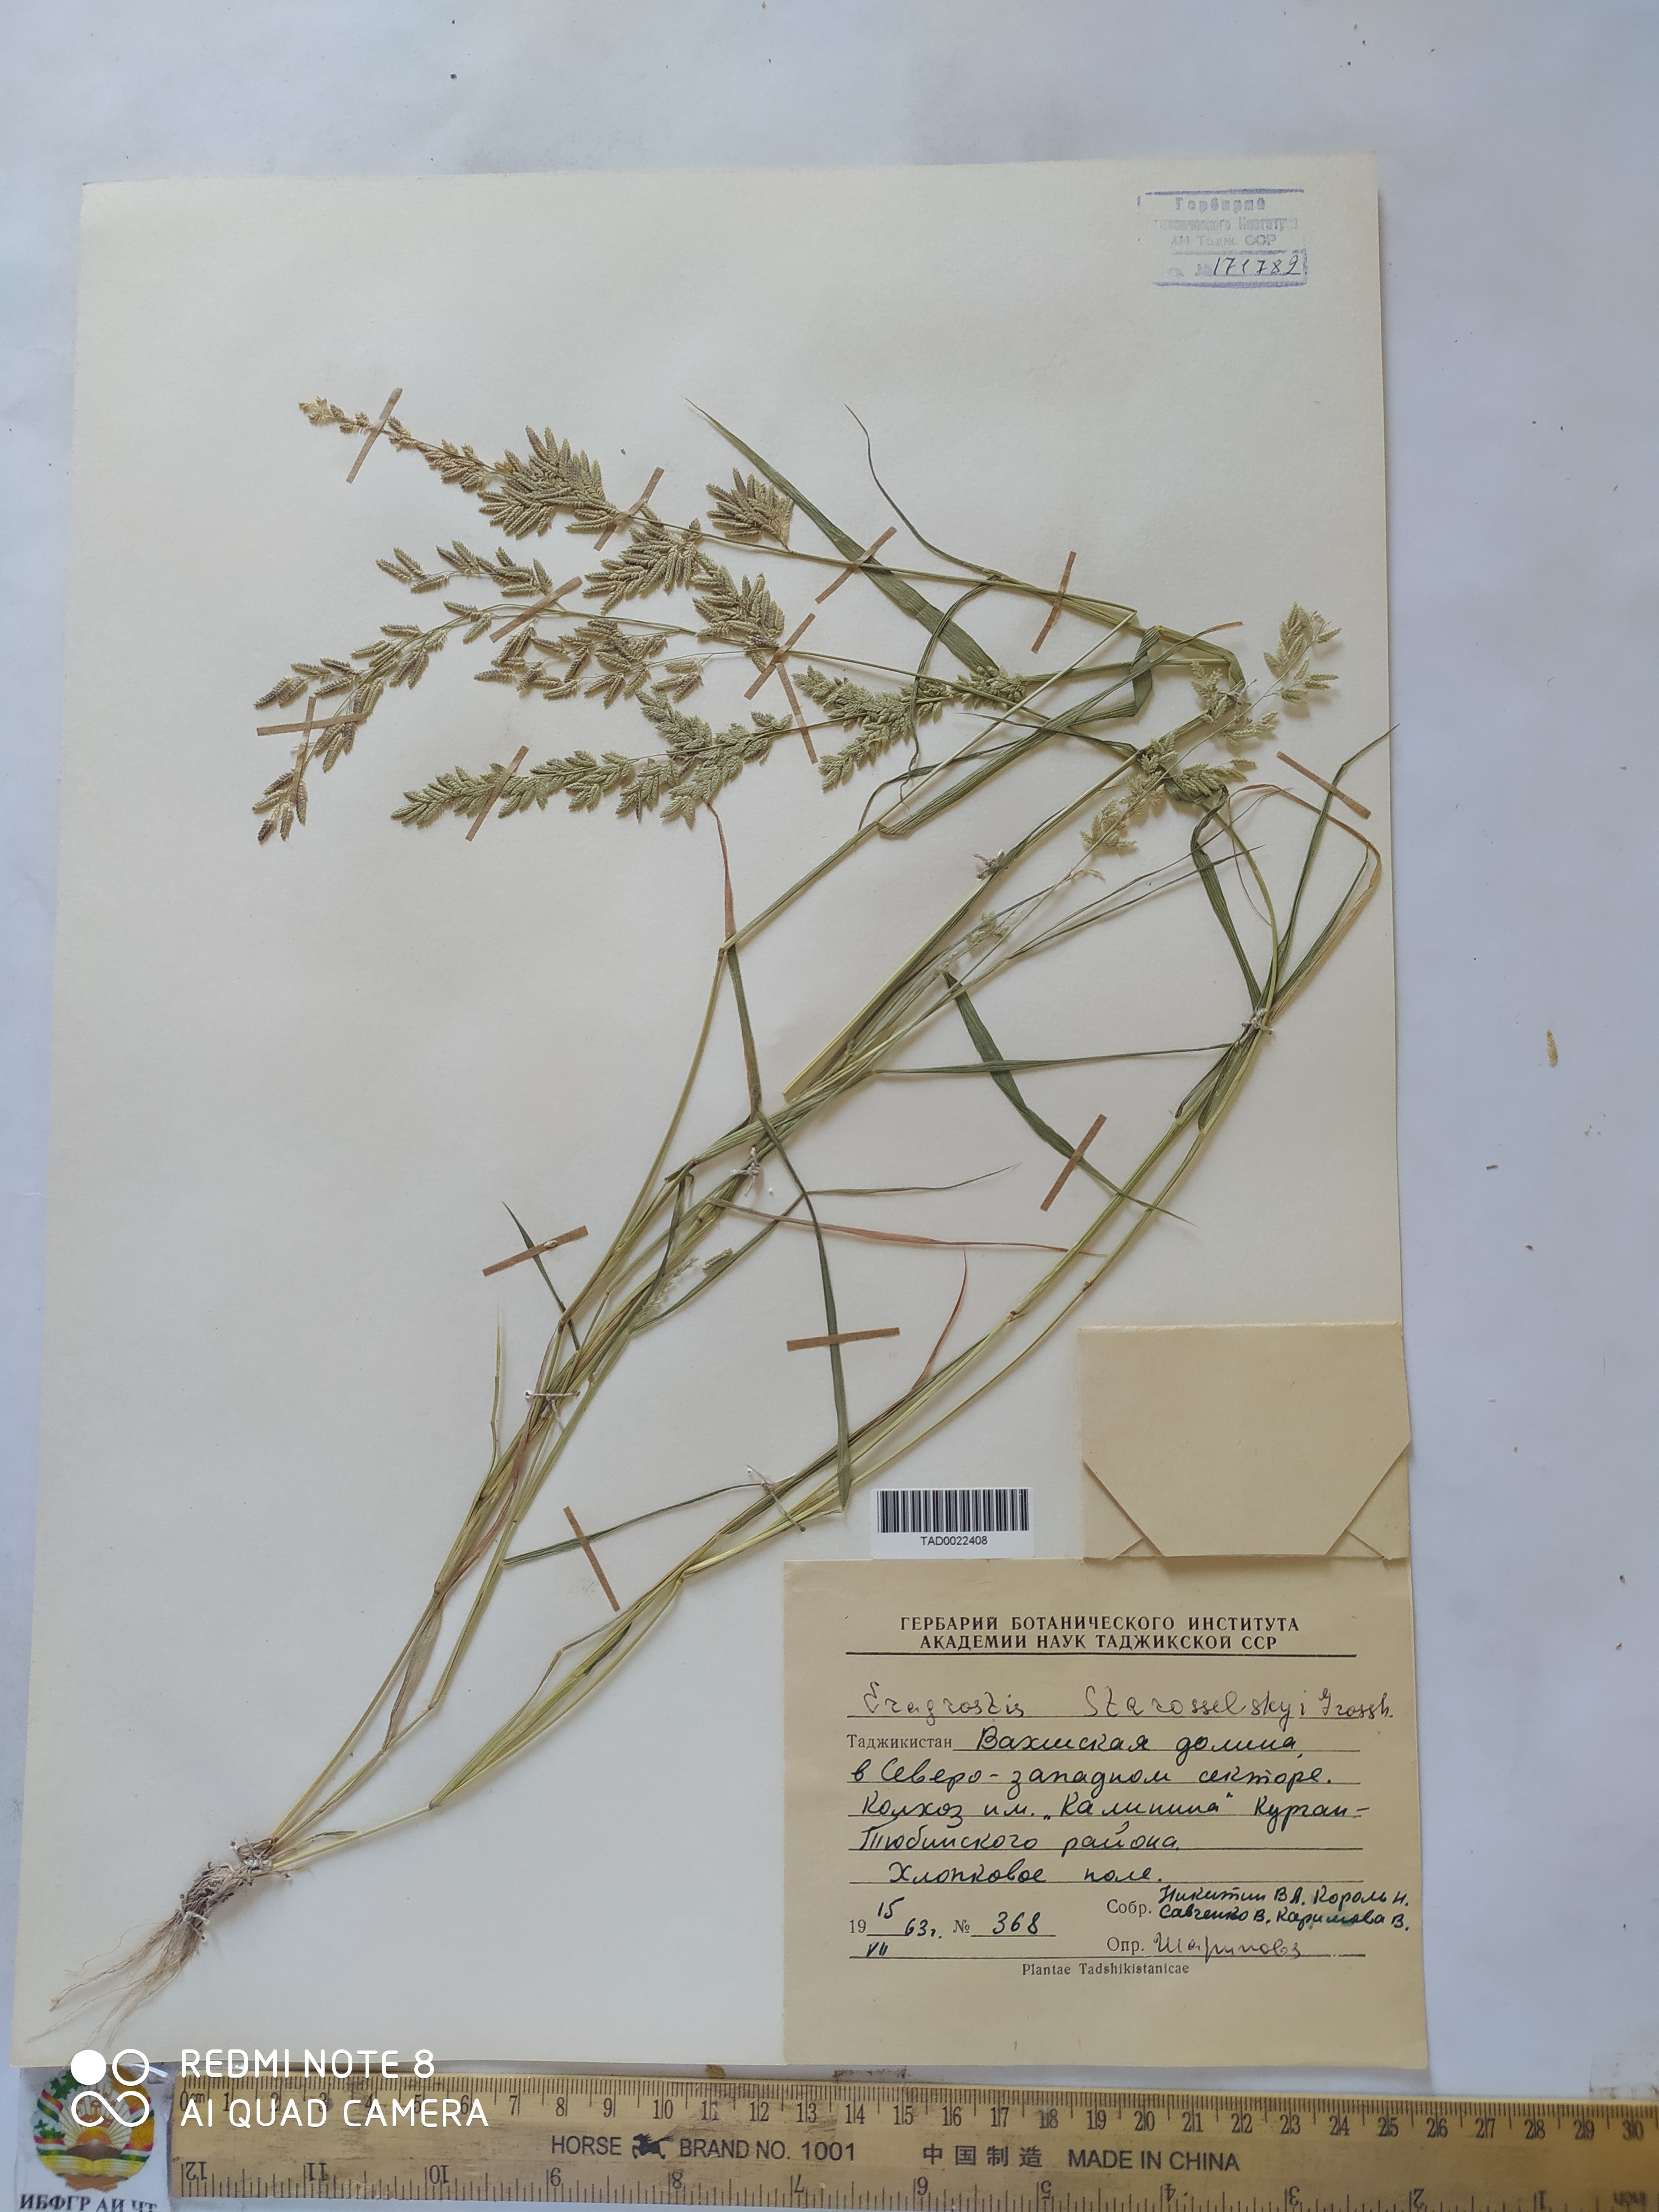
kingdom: Plantae
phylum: Tracheophyta
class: Liliopsida
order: Poales
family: Poaceae
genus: Eragrostis
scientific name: Eragrostis cilianensis
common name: Stinkgrass
